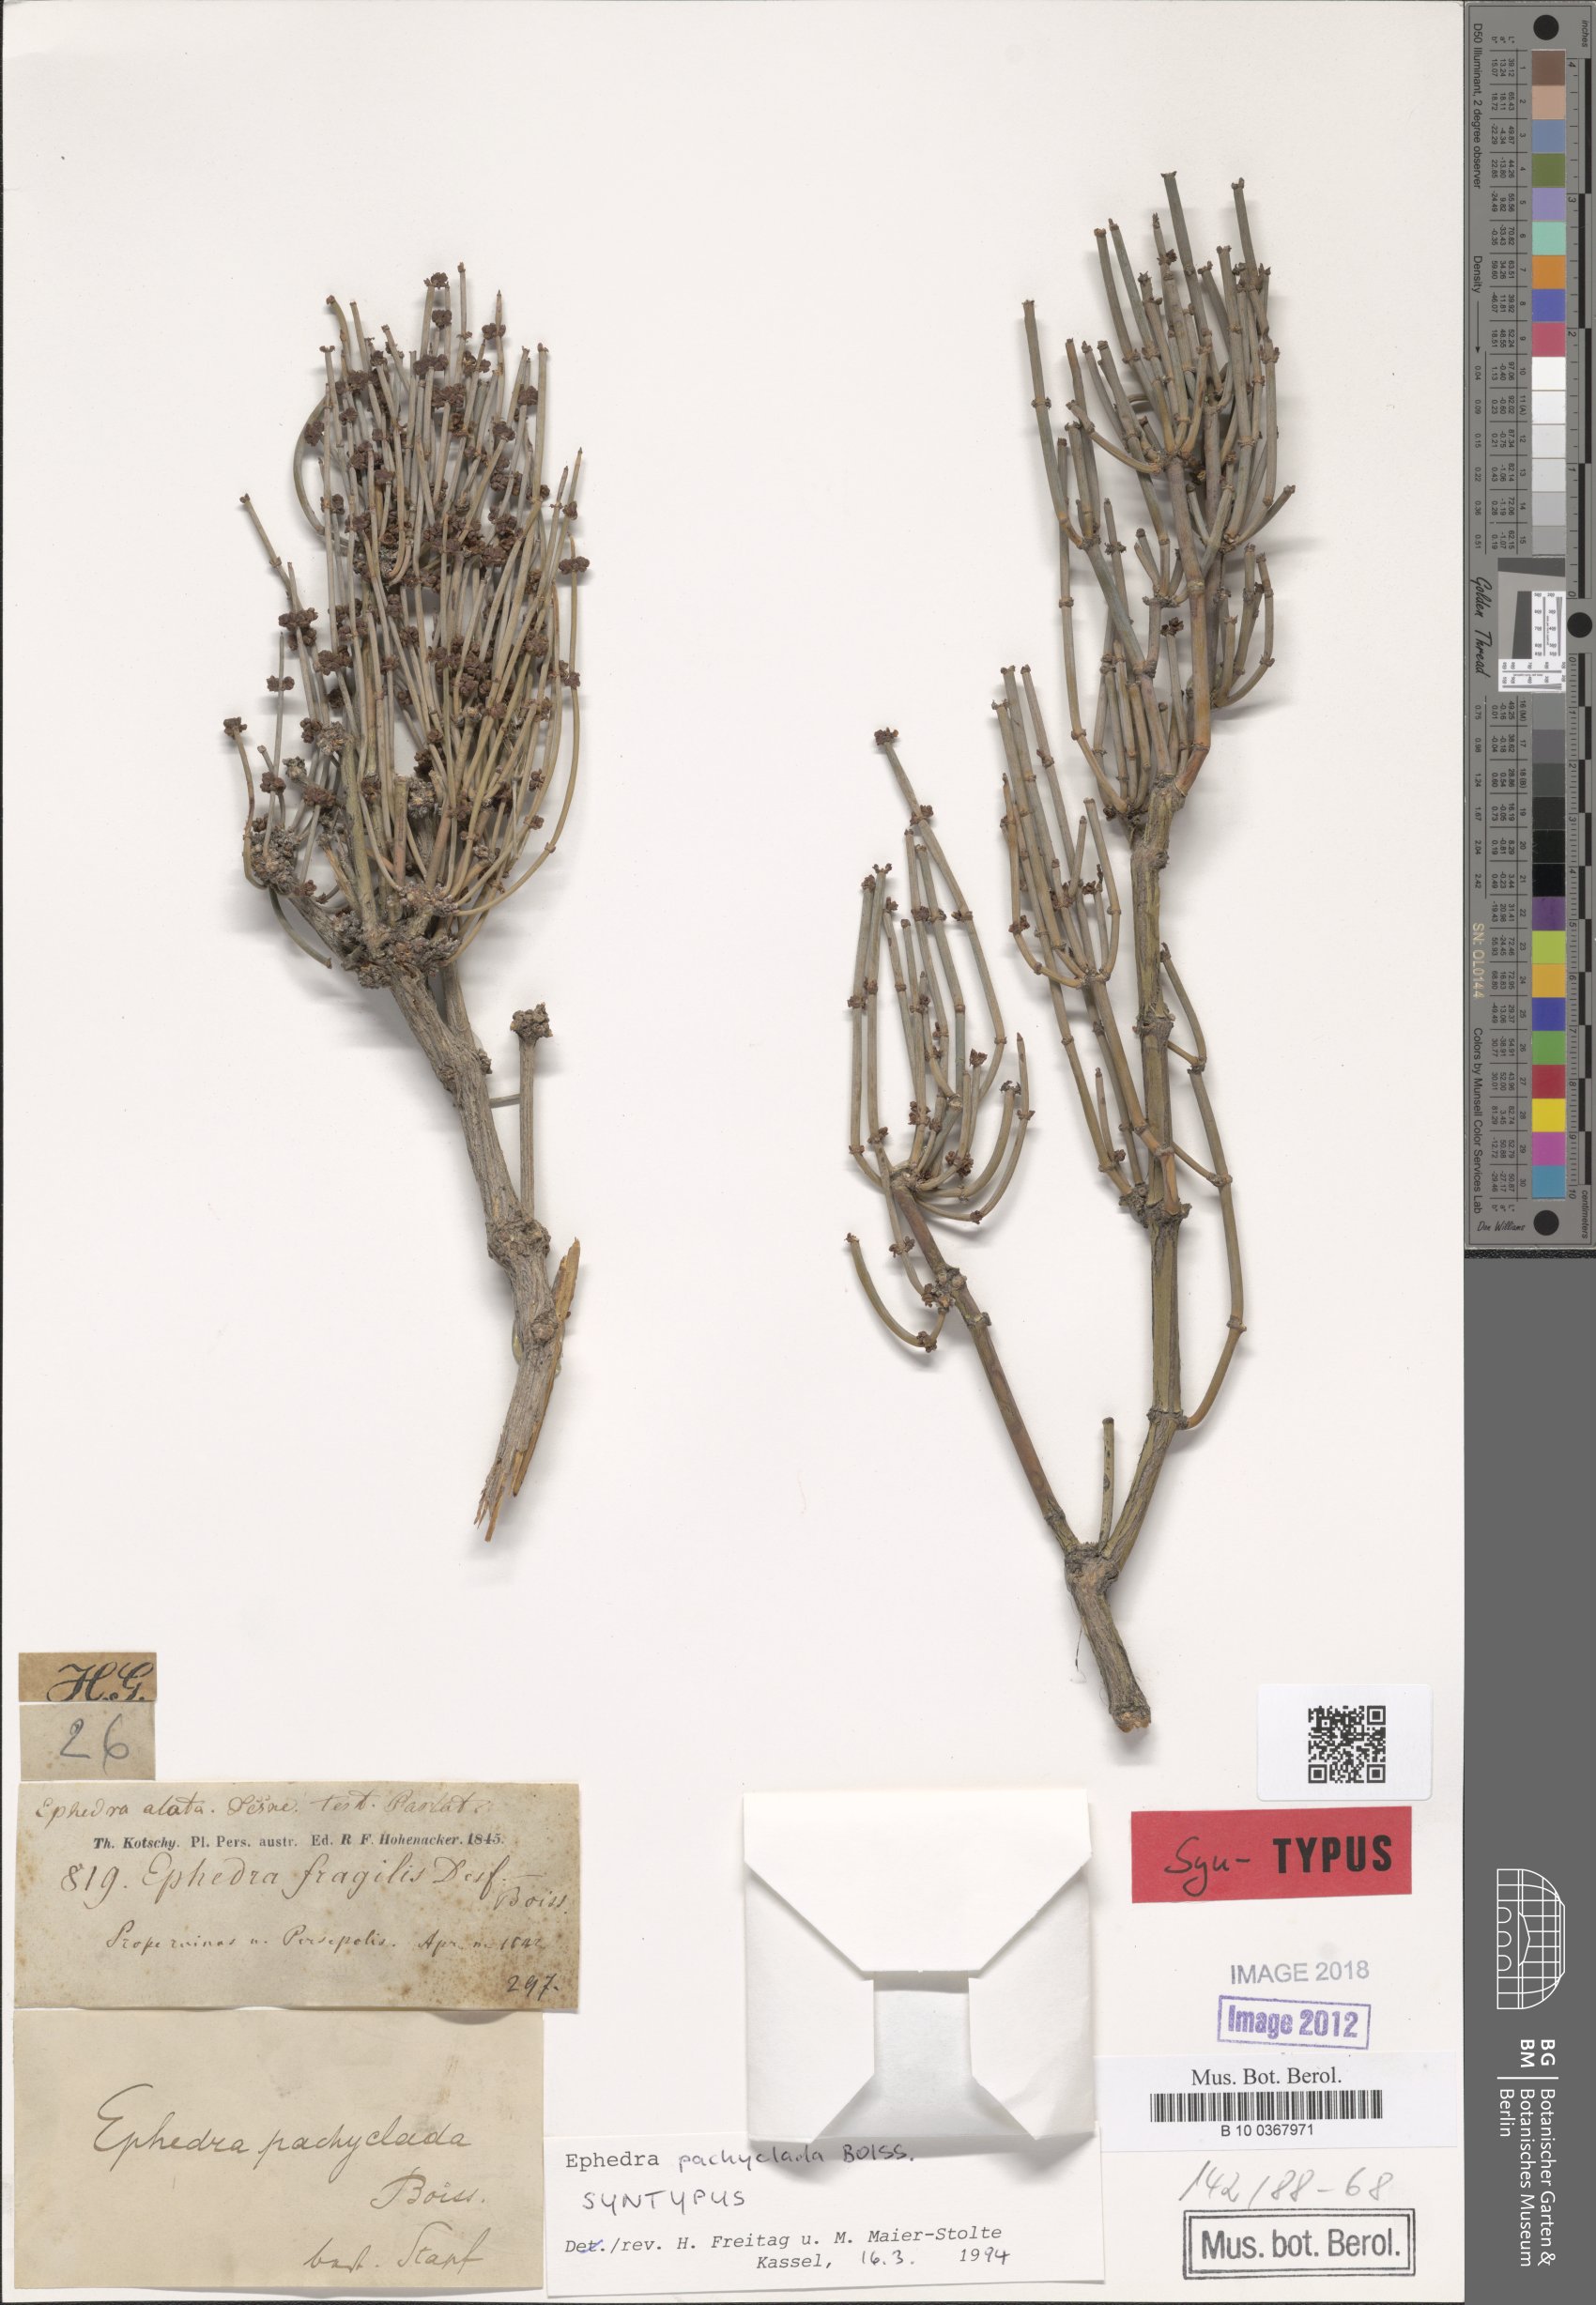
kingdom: Plantae
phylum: Tracheophyta
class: Gnetopsida
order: Ephedrales
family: Ephedraceae
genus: Ephedra
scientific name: Ephedra pachyclada
